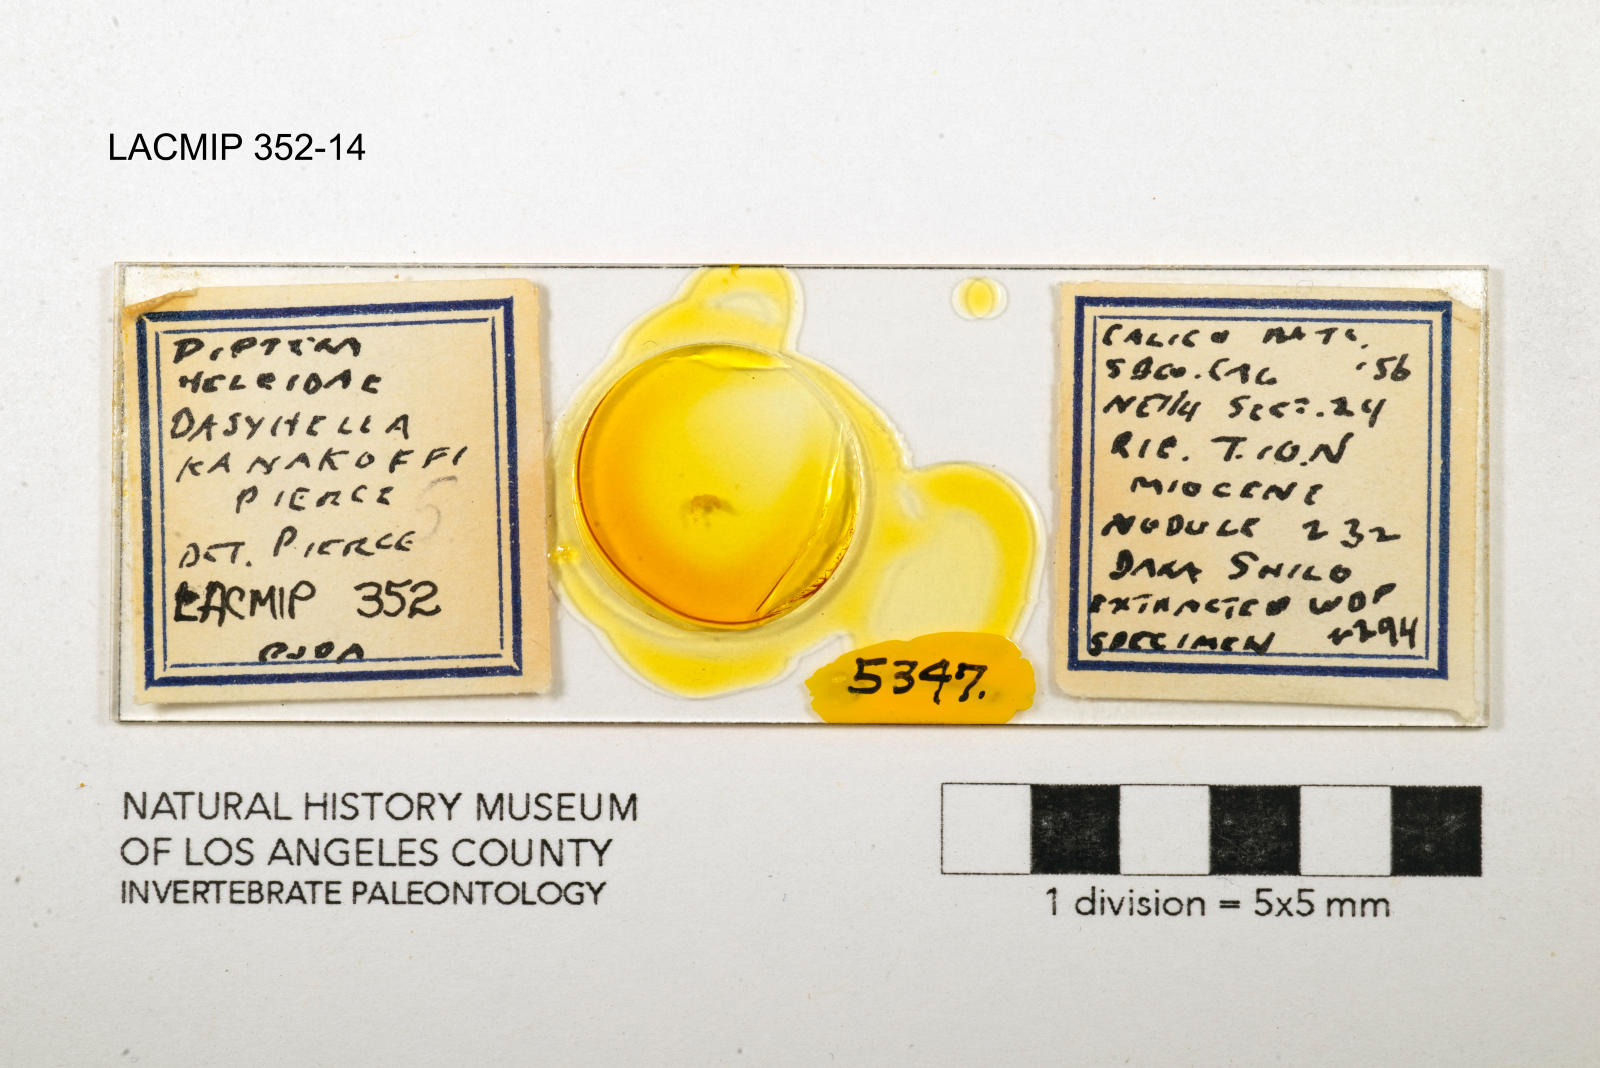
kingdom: Animalia
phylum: Arthropoda
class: Insecta
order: Diptera
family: Ceratopogonidae
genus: Dasyhelea
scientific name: Dasyhelea kanakoffi
